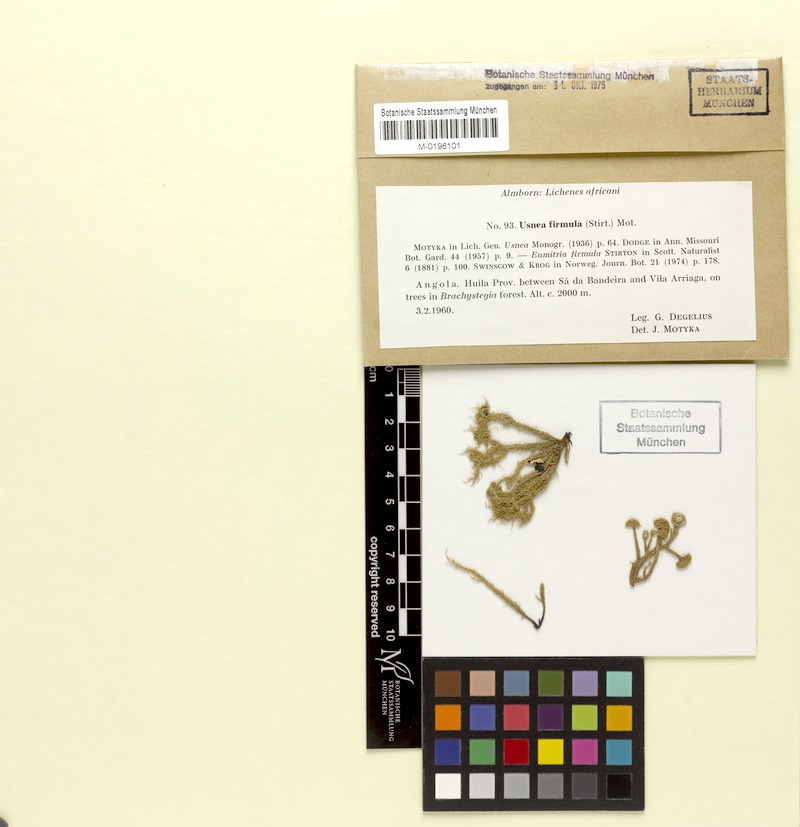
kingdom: Fungi
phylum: Ascomycota
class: Lecanoromycetes
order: Lecanorales
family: Parmeliaceae
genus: Usnea
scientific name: Usnea firmula
